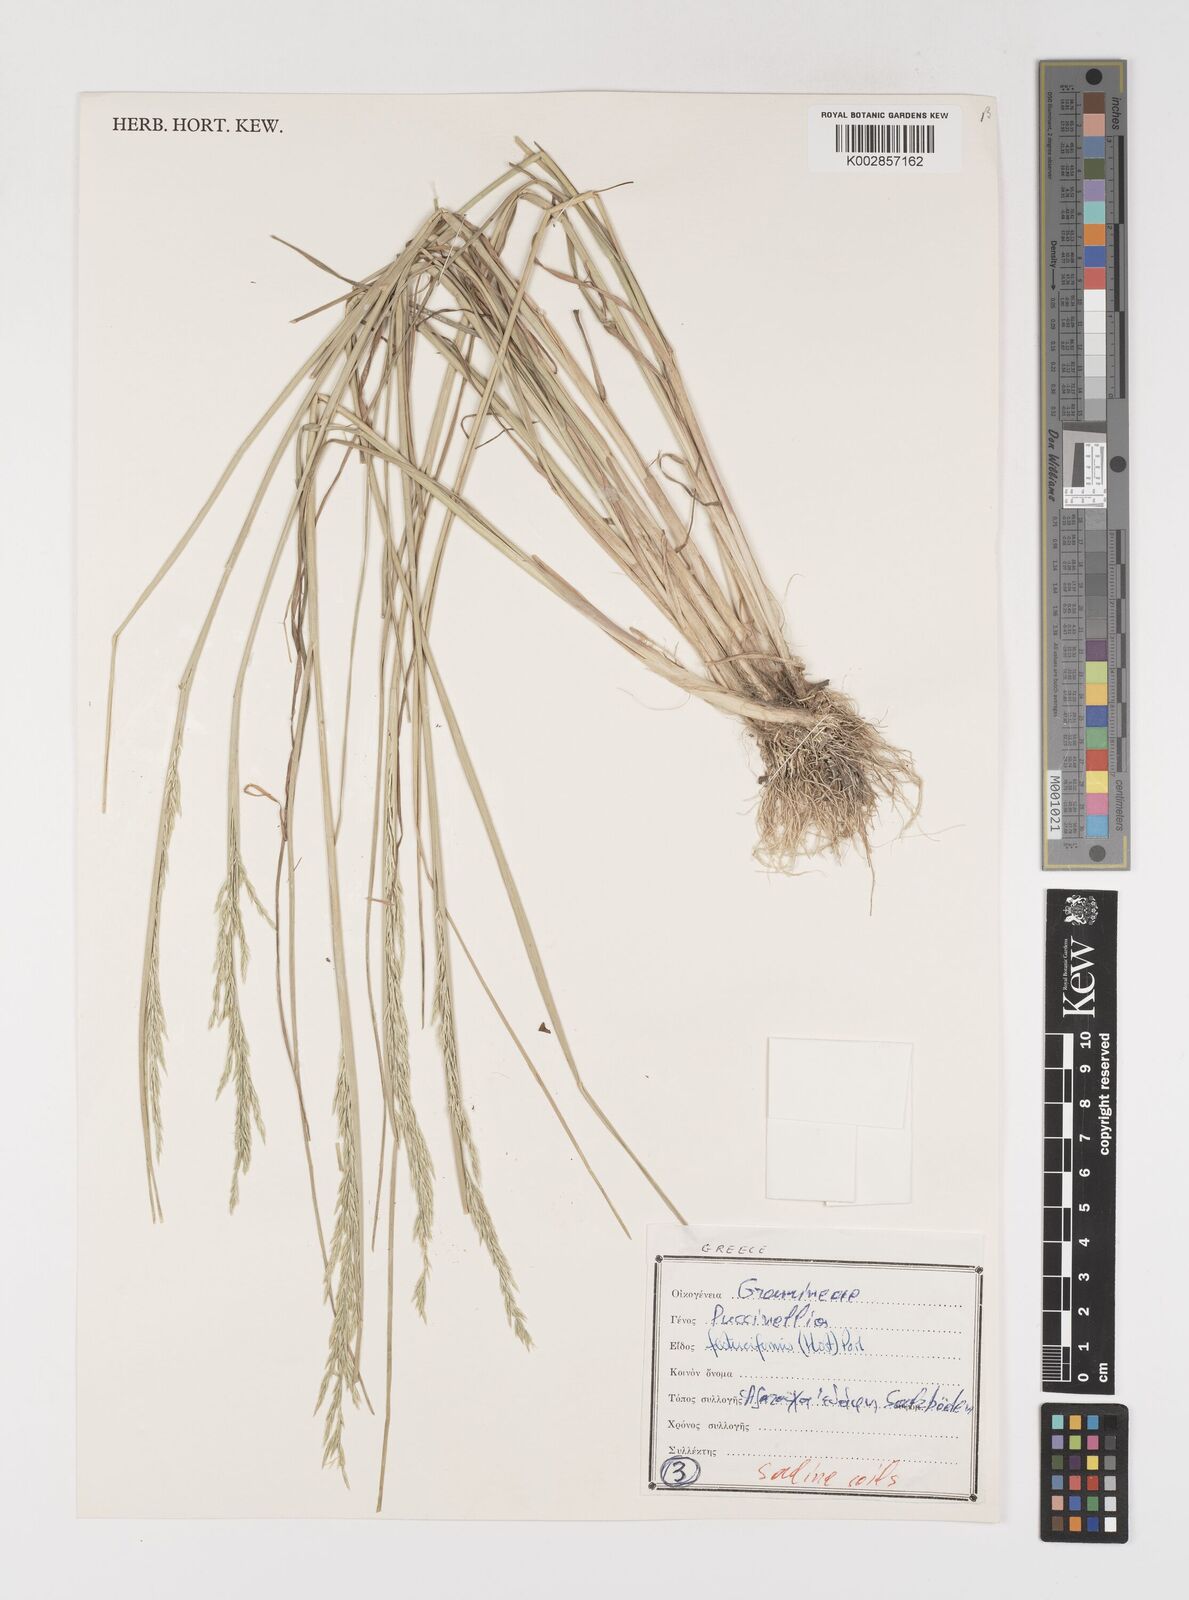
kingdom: Plantae
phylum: Tracheophyta
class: Liliopsida
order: Poales
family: Poaceae
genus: Puccinellia
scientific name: Puccinellia festuciformis
